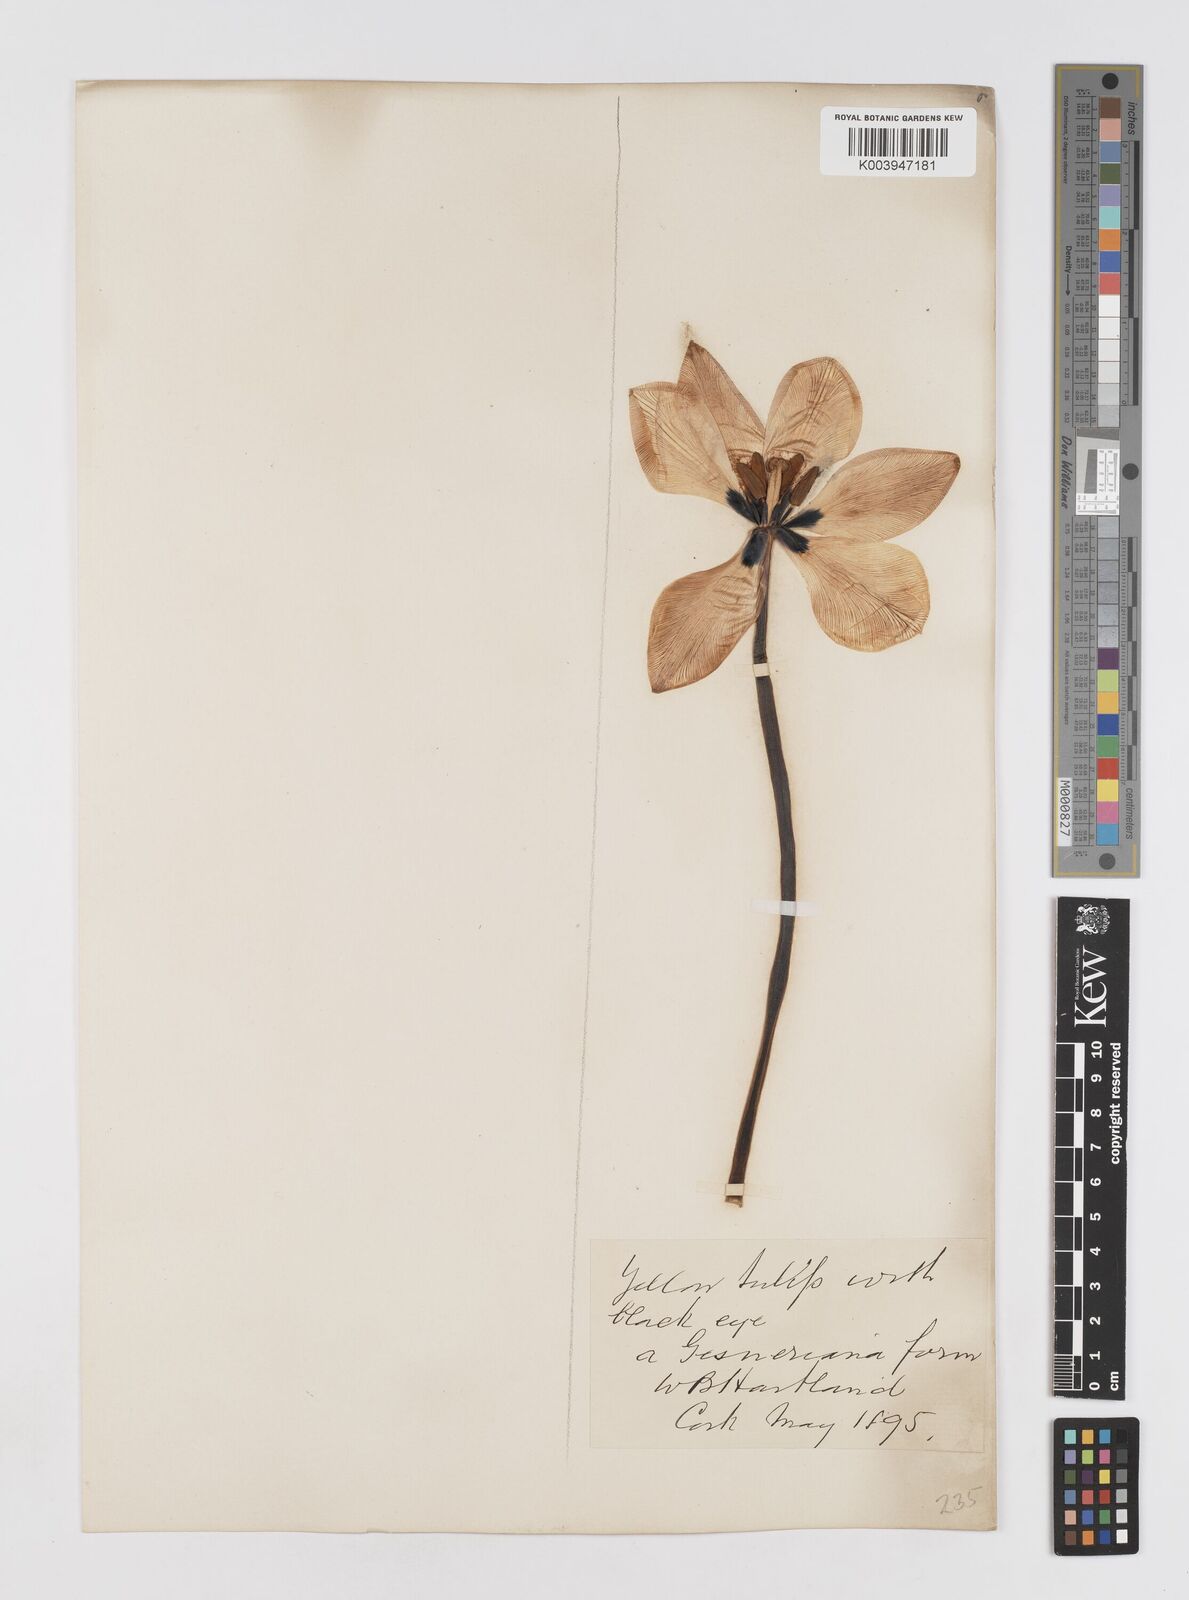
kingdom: Plantae
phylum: Tracheophyta
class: Liliopsida
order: Liliales
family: Liliaceae
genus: Tulipa
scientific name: Tulipa gesneriana
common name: Garden tulip
